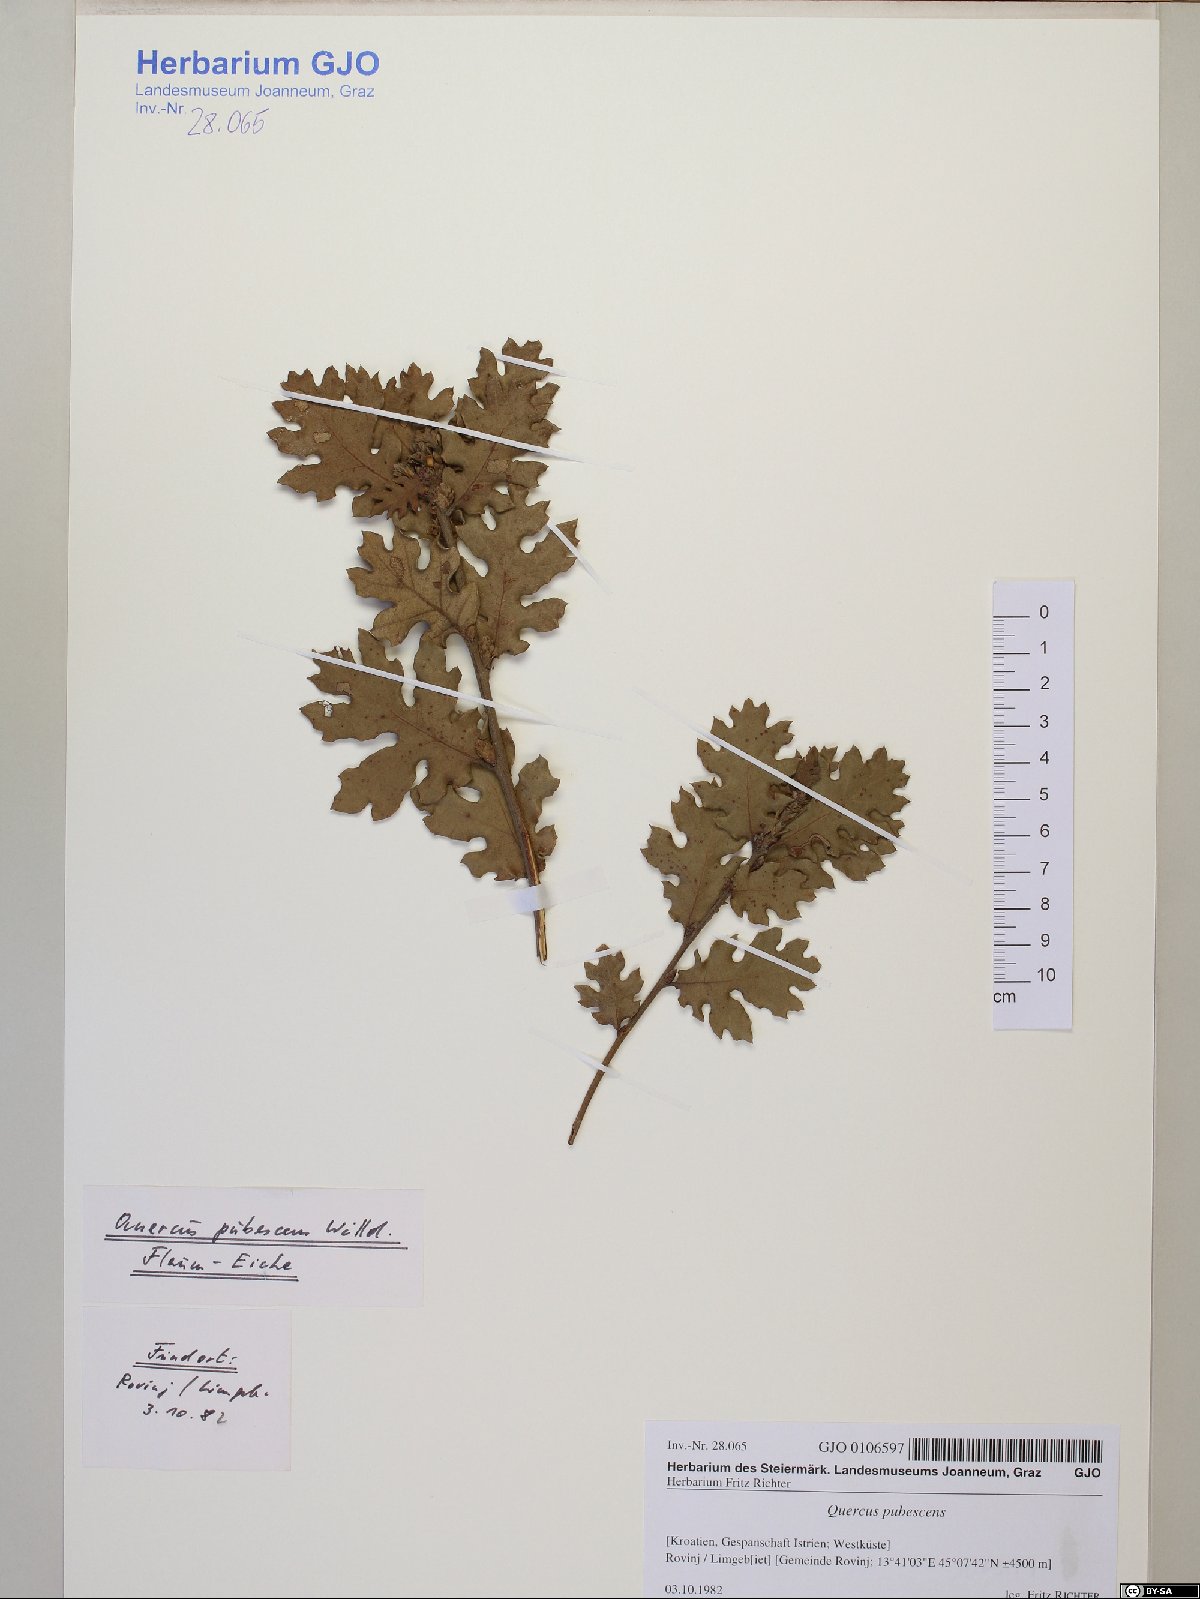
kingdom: Plantae
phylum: Tracheophyta
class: Magnoliopsida
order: Fagales
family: Fagaceae
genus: Quercus
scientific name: Quercus pubescens
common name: Downy oak
